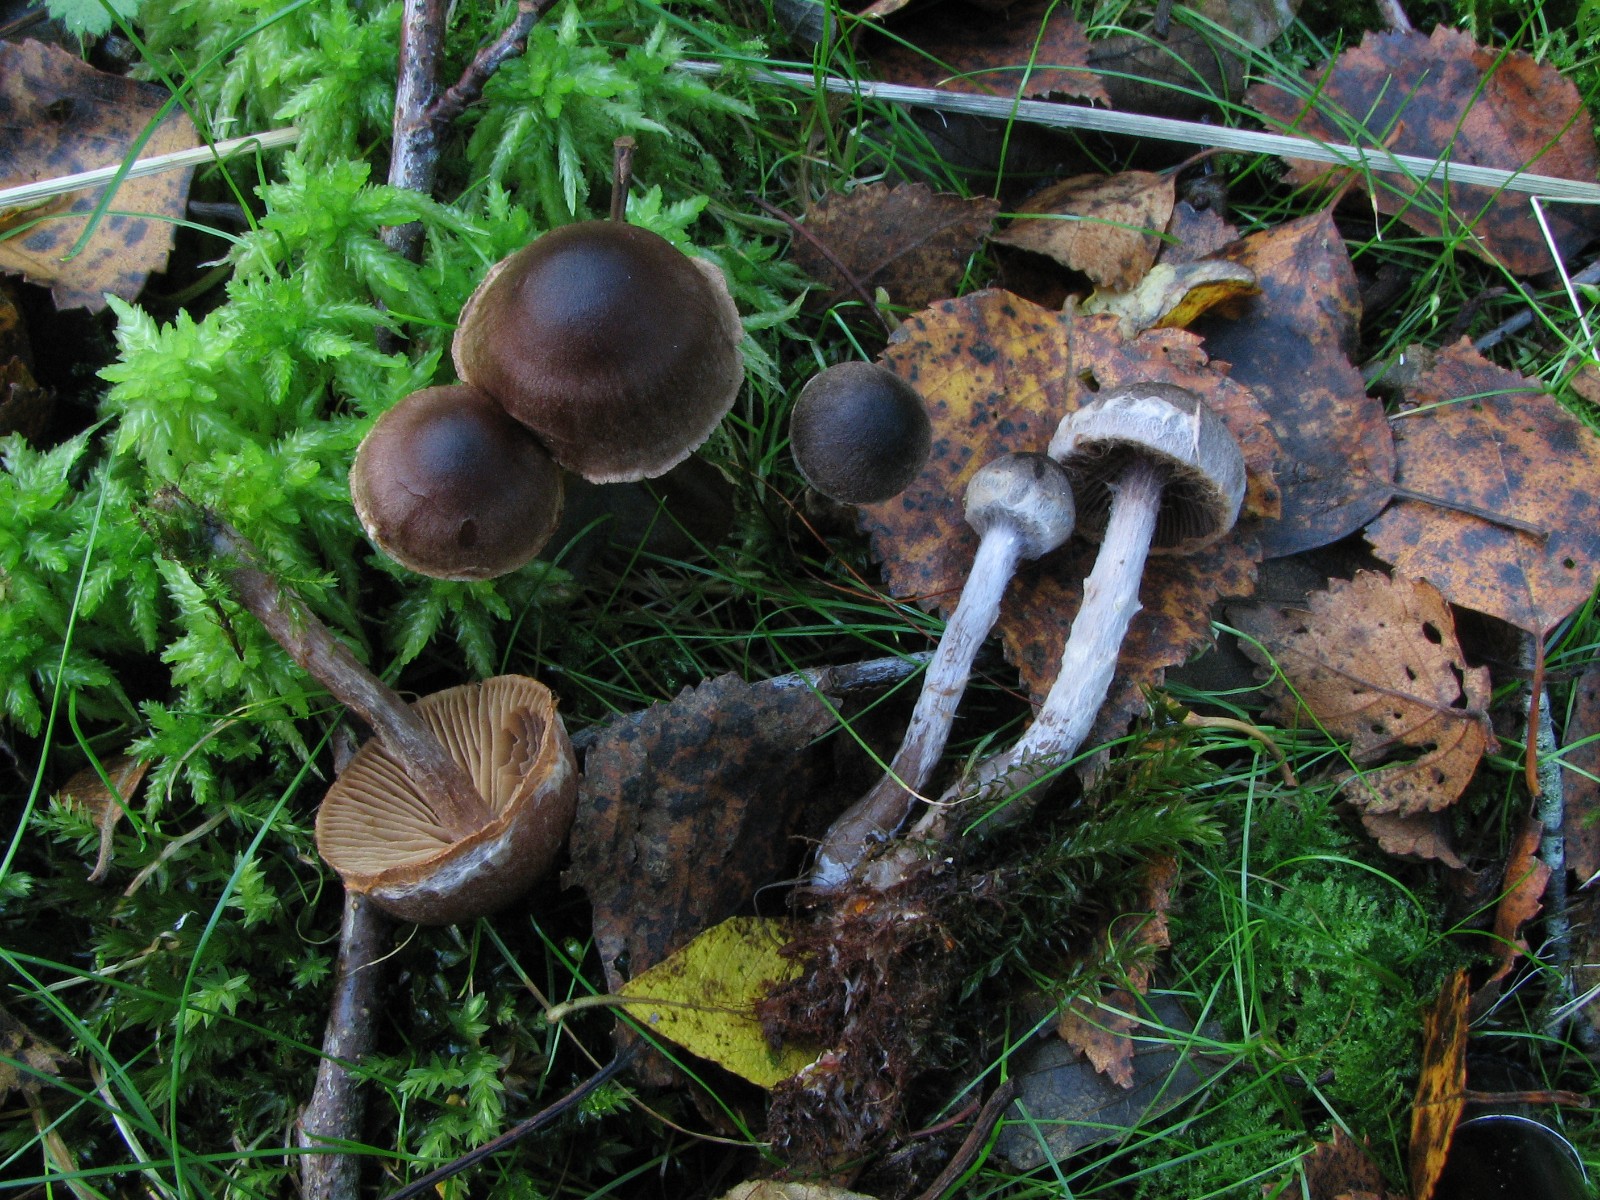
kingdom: Fungi
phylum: Basidiomycota
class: Agaricomycetes
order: Agaricales
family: Cortinariaceae
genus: Cortinarius
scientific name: Cortinarius decipiens
